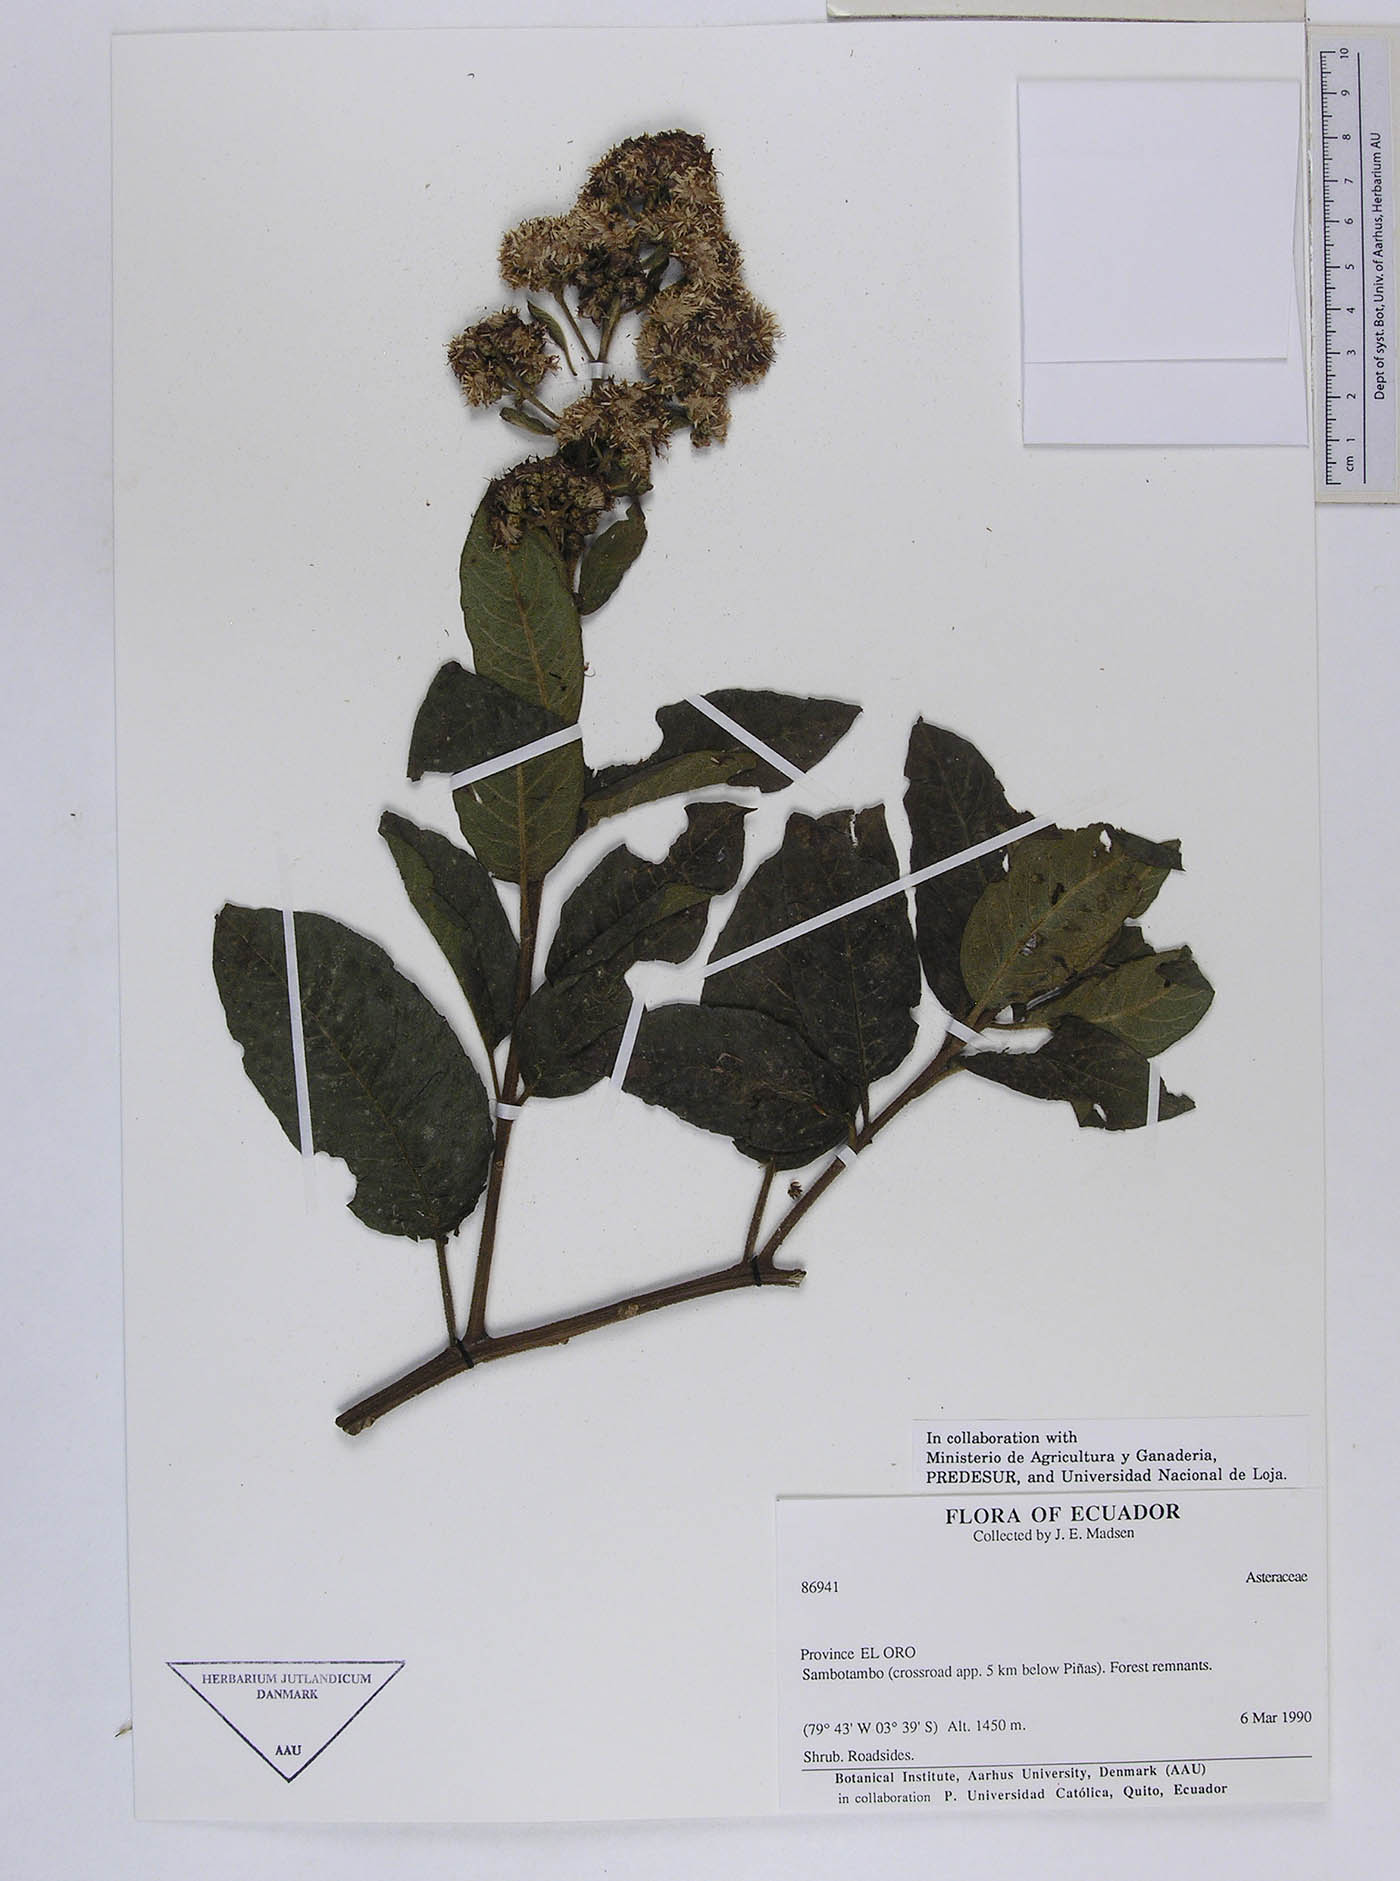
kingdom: Plantae
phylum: Tracheophyta
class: Magnoliopsida
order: Asterales
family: Asteraceae
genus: Vernonanthura
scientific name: Vernonanthura patens
